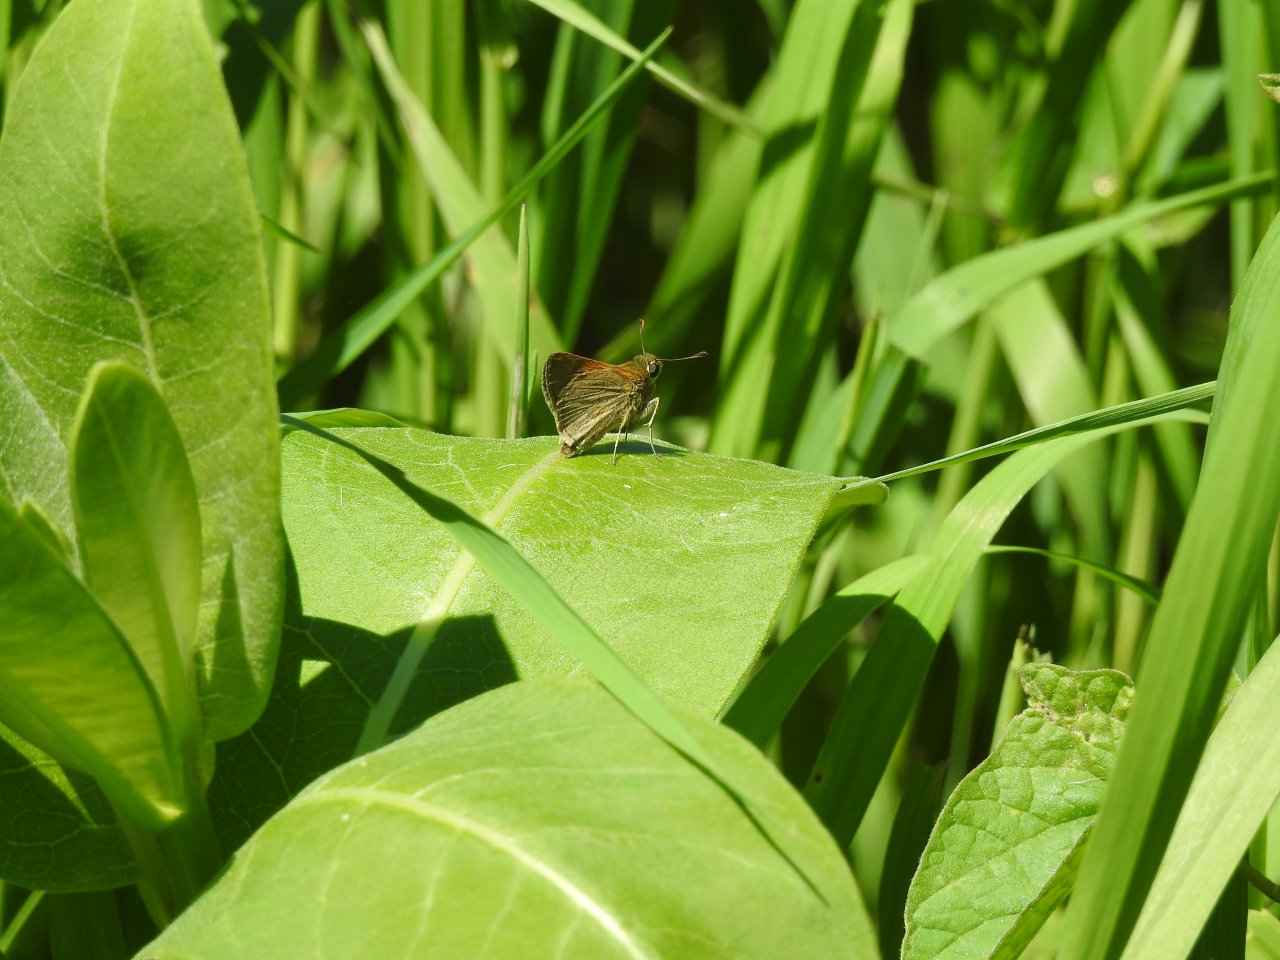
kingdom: Animalia
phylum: Arthropoda
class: Insecta
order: Lepidoptera
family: Hesperiidae
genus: Polites
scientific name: Polites themistocles
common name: Tawny-edged Skipper
